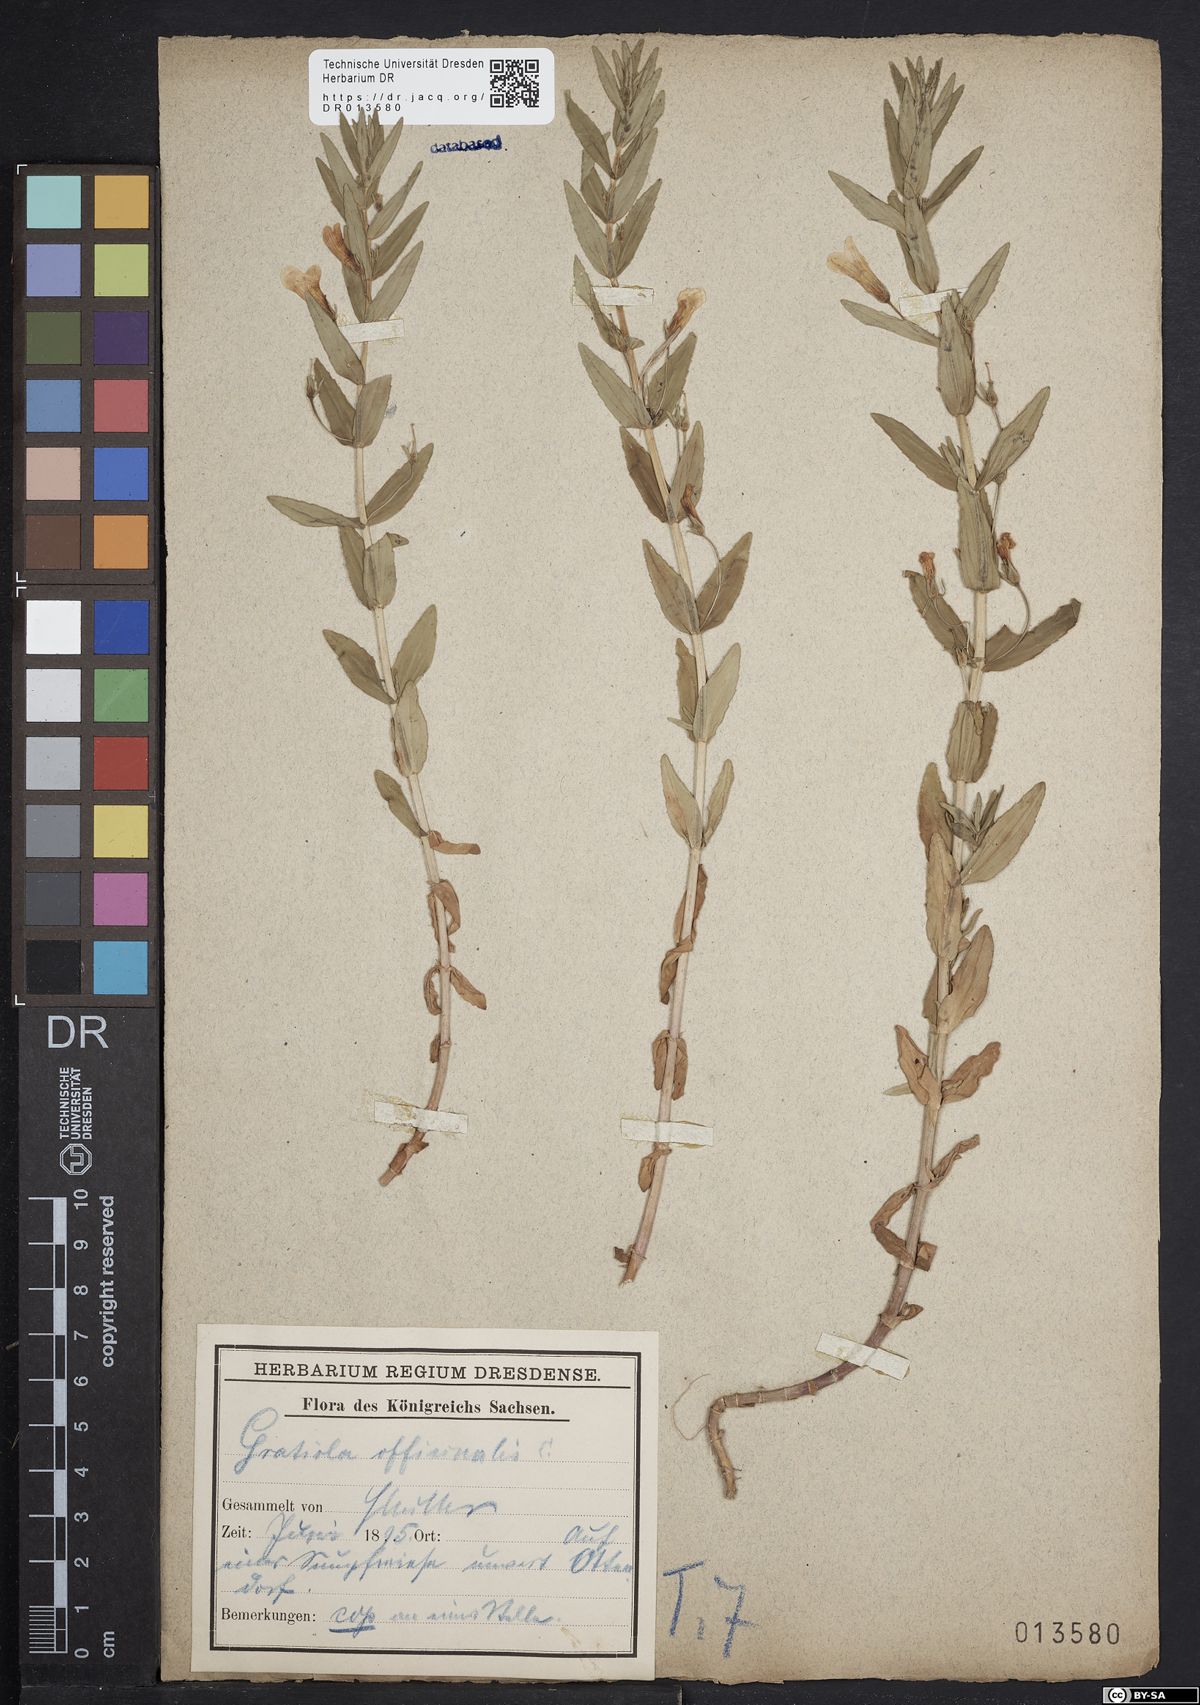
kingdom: Plantae
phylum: Tracheophyta
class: Magnoliopsida
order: Lamiales
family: Plantaginaceae
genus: Gratiola
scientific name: Gratiola officinalis
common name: Gratiola
